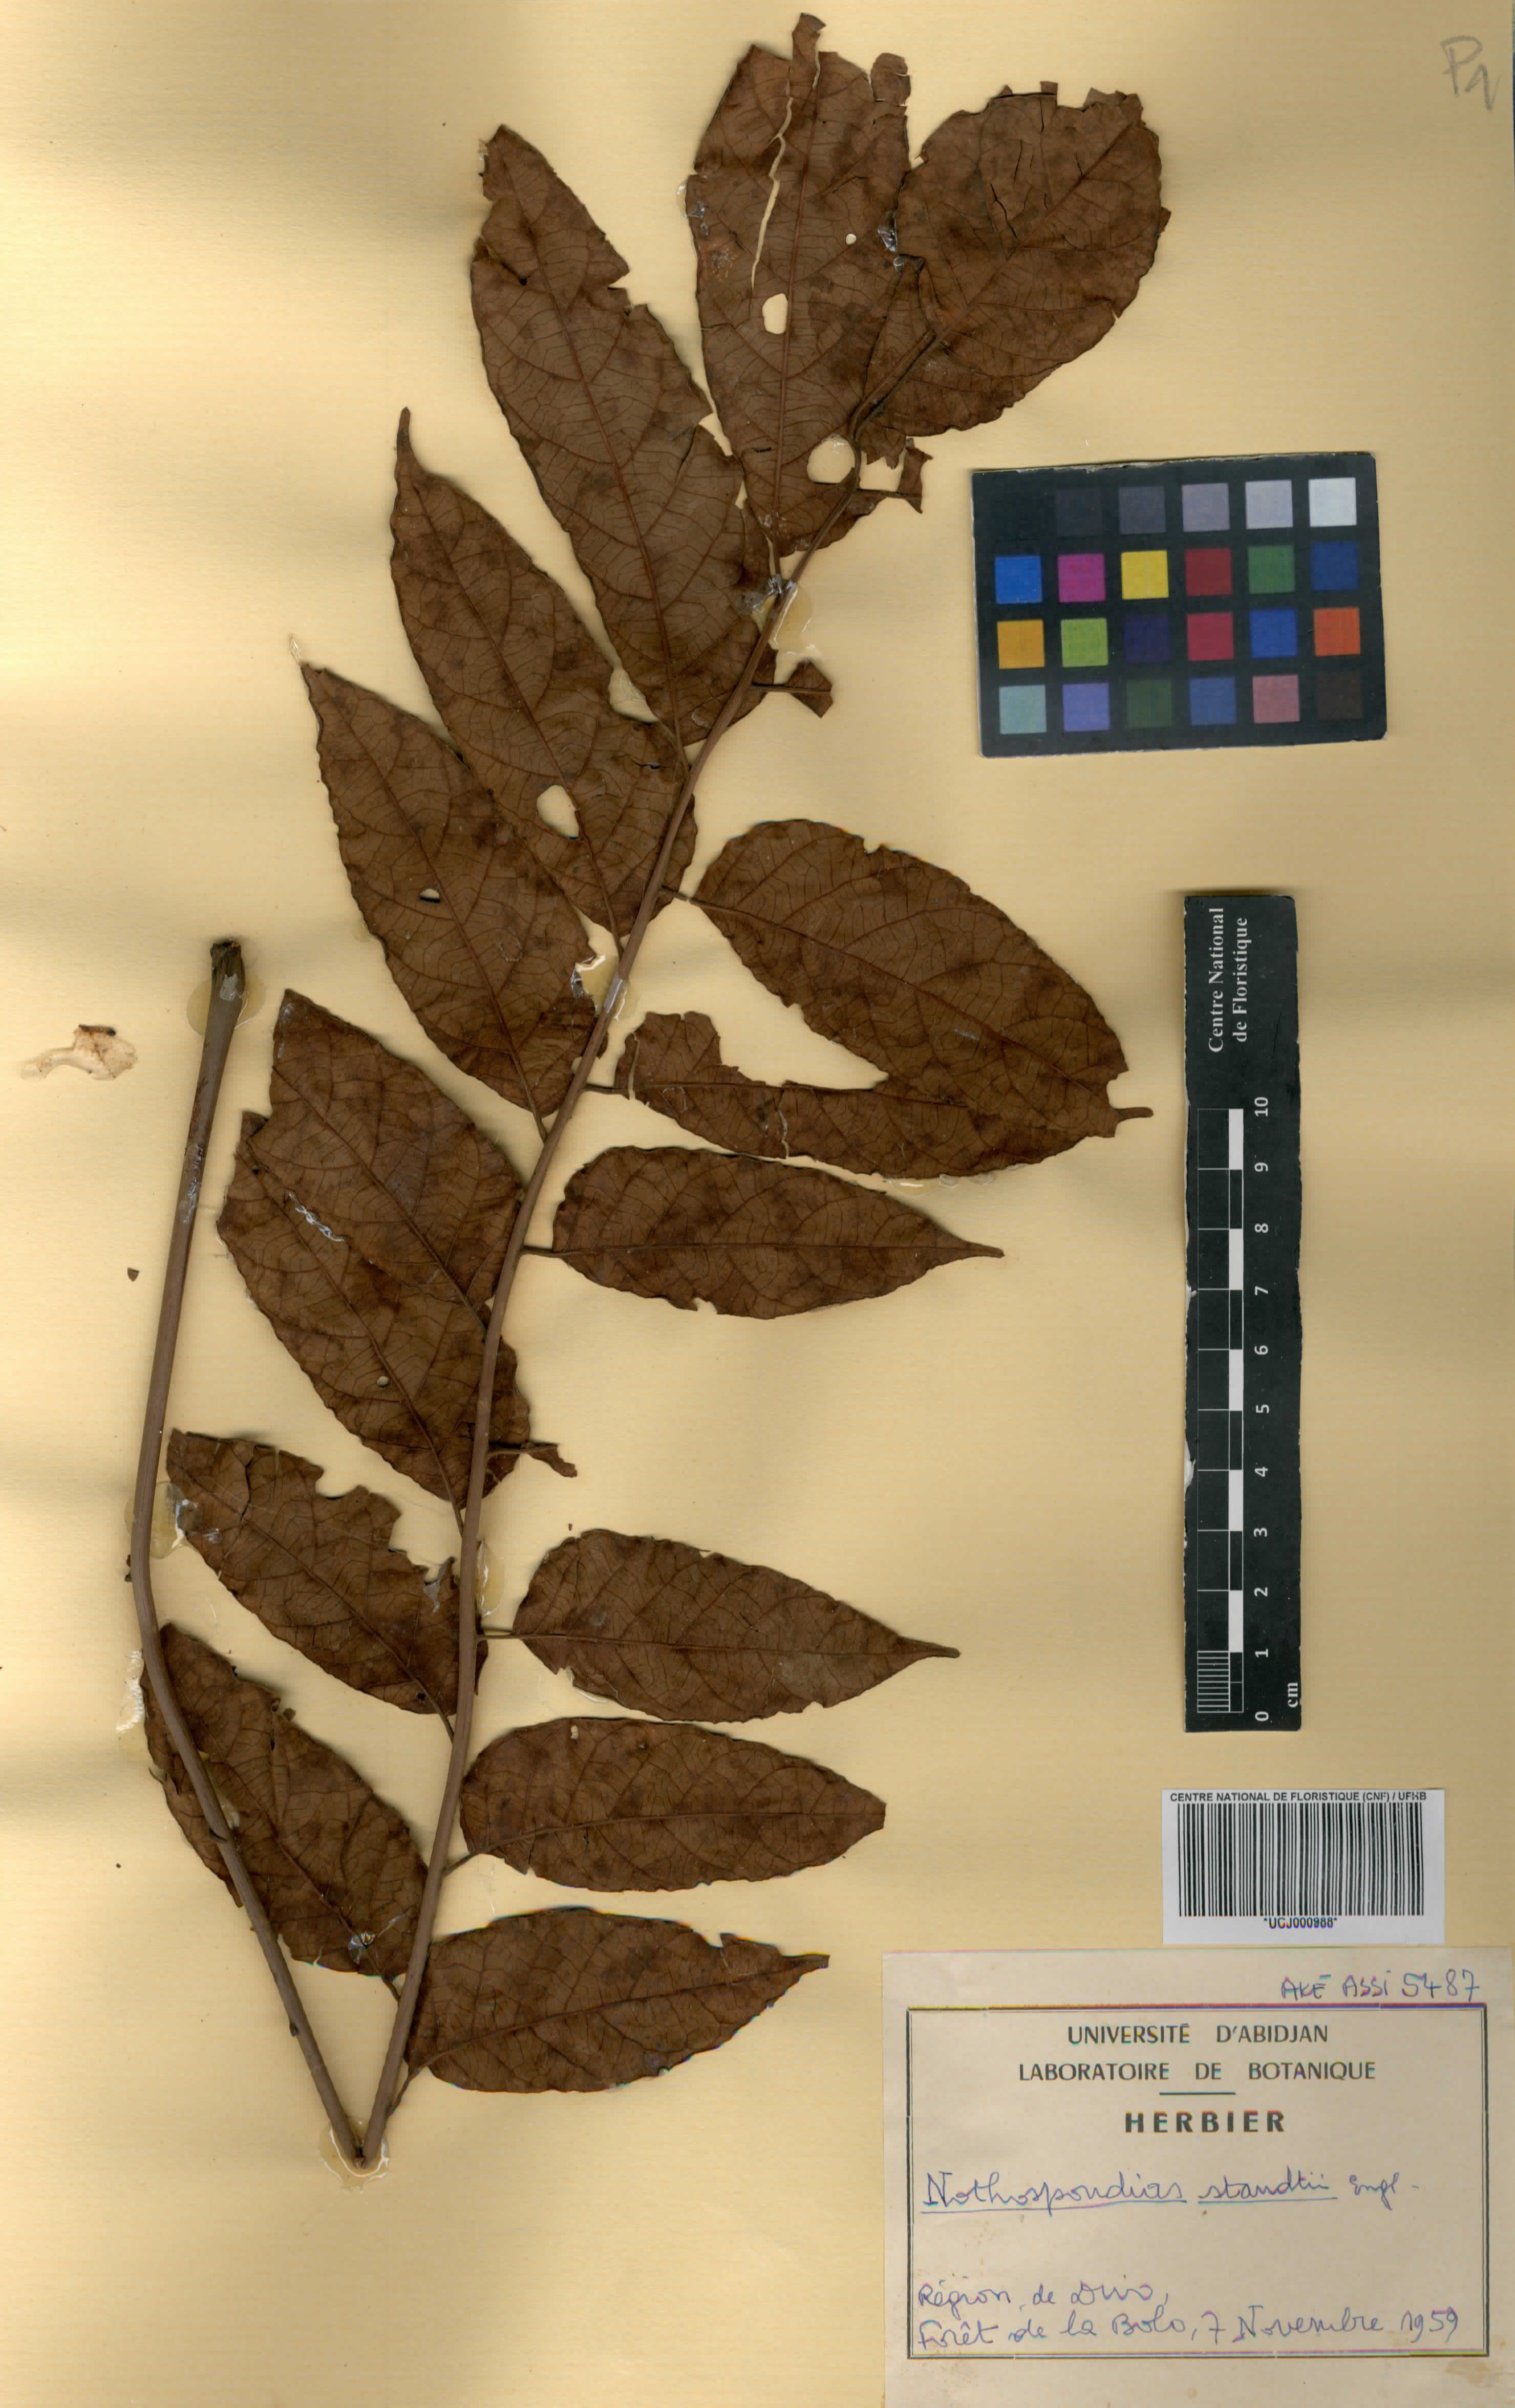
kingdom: Plantae
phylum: Tracheophyta
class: Magnoliopsida
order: Sapindales
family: Simaroubaceae
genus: Nothospondias
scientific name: Nothospondias staudtii
